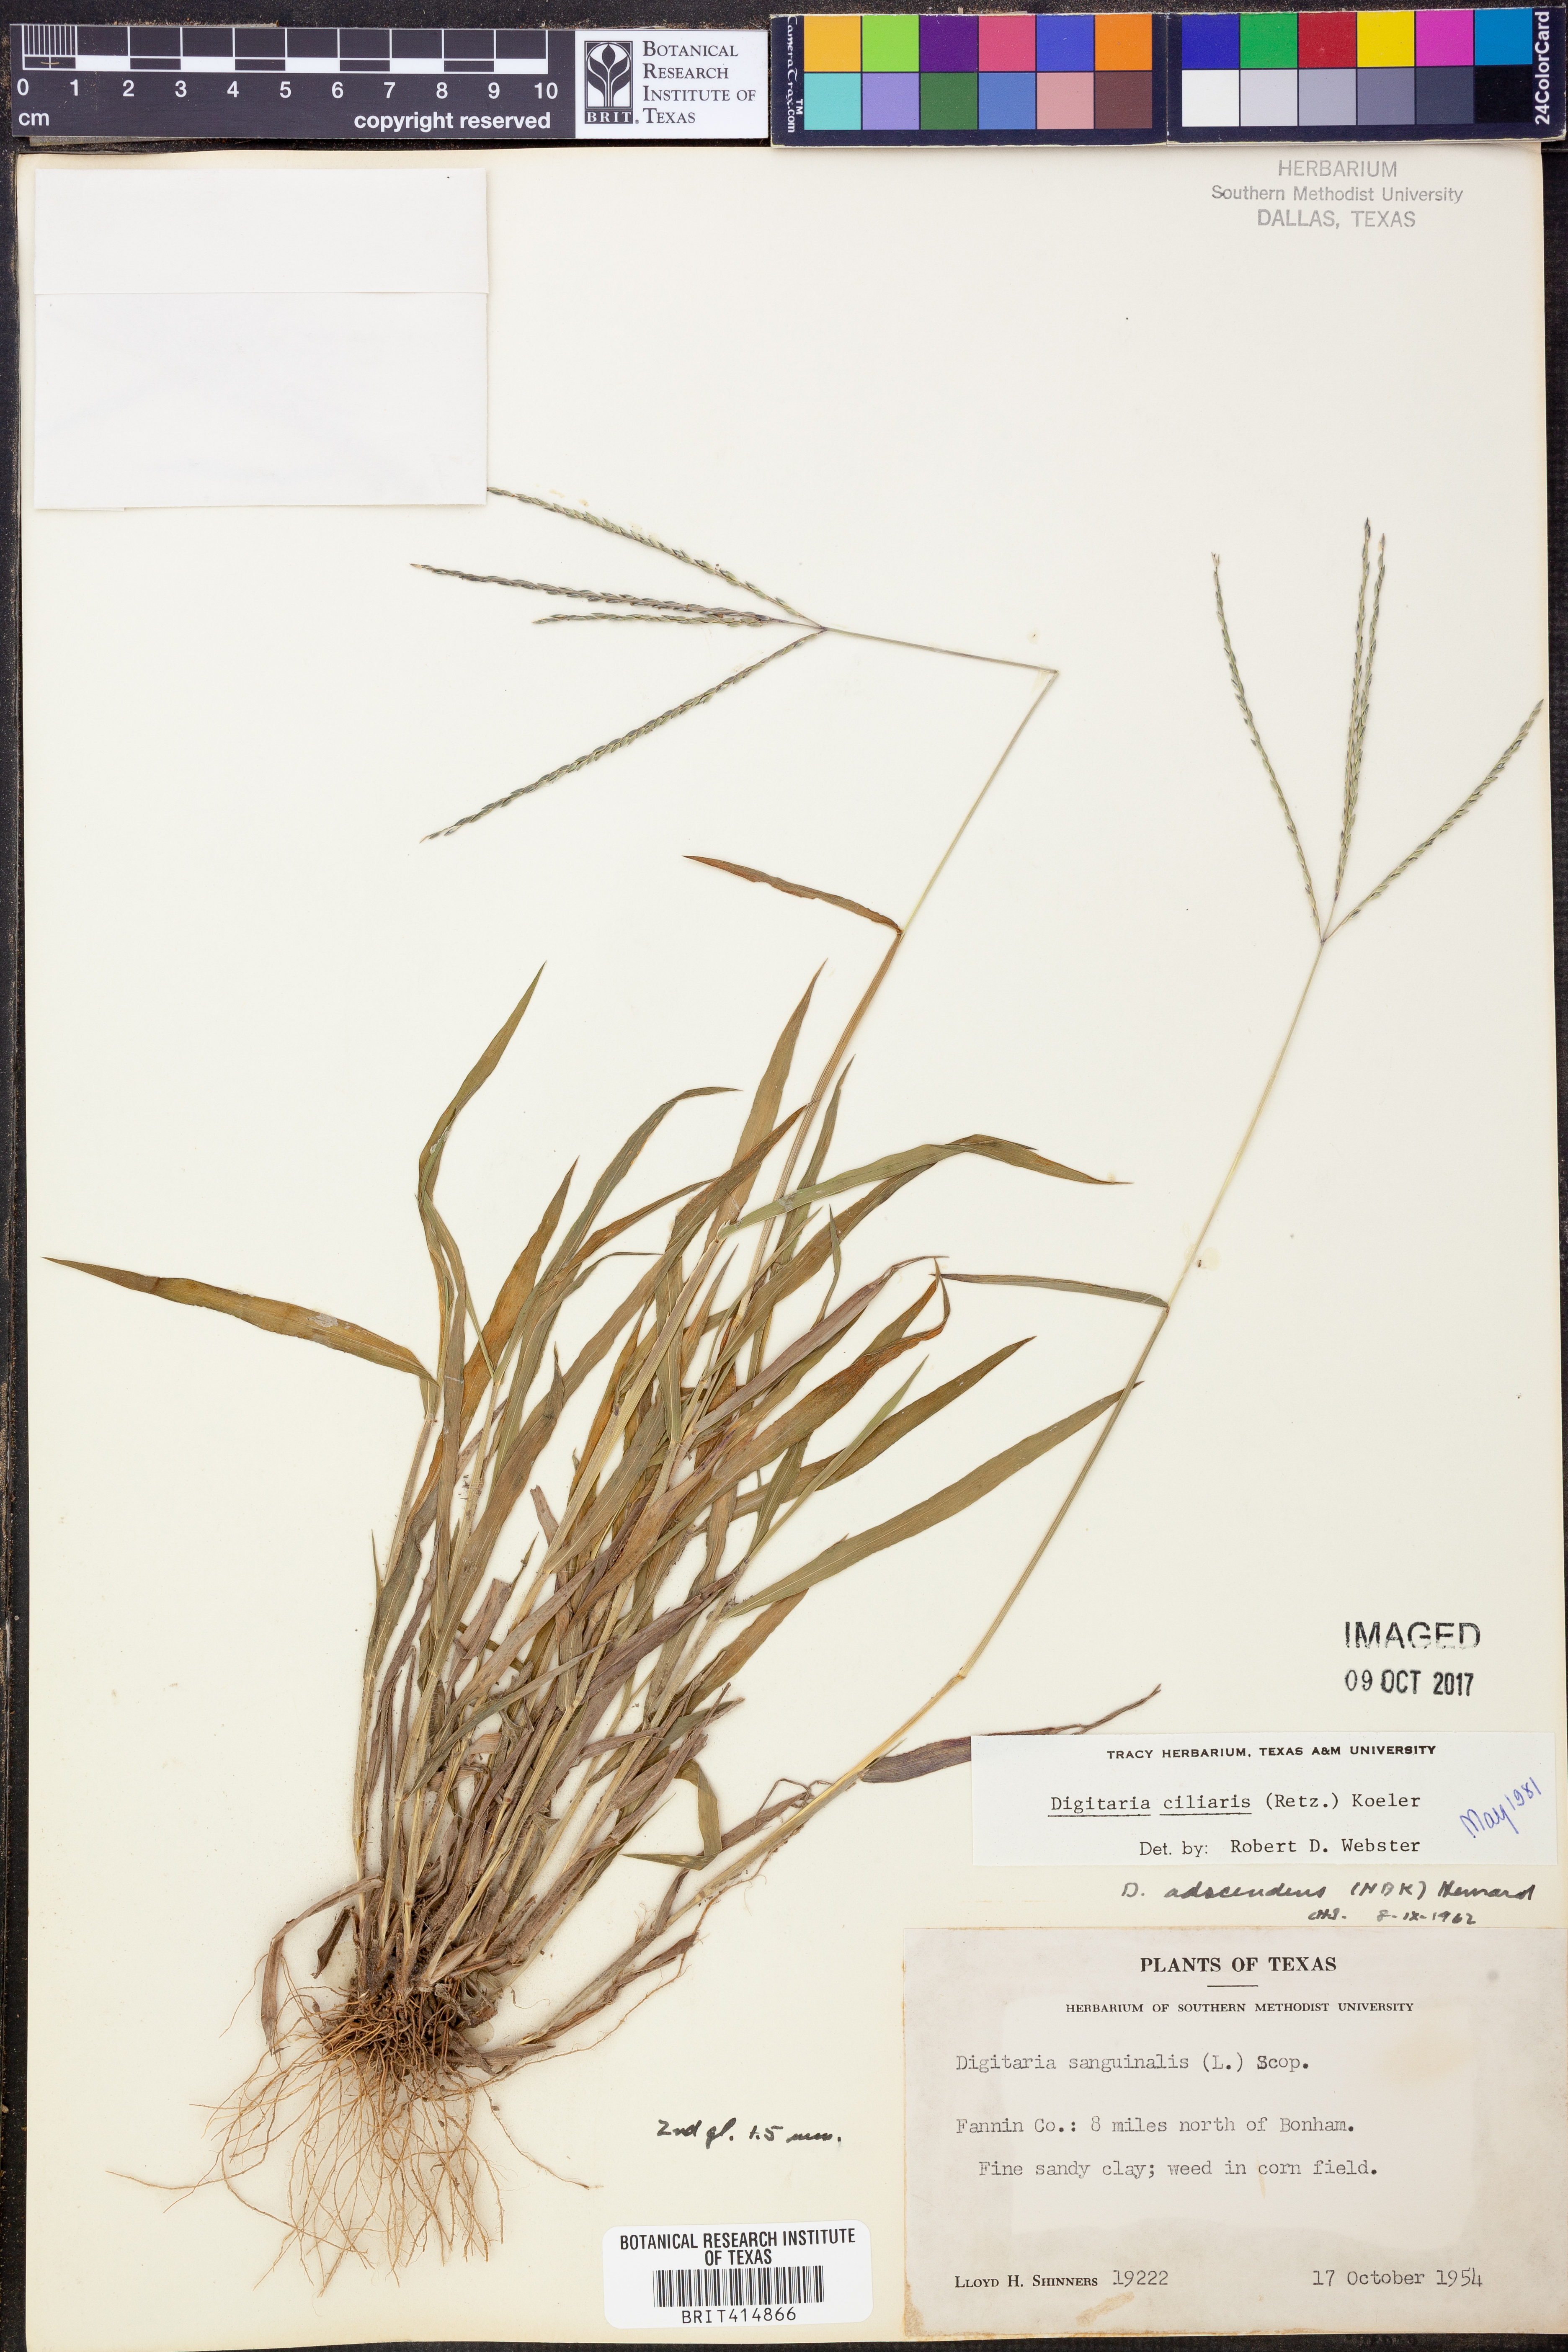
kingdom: Plantae
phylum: Tracheophyta
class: Liliopsida
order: Poales
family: Poaceae
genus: Digitaria
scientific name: Digitaria ciliaris
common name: Tropical finger-grass
